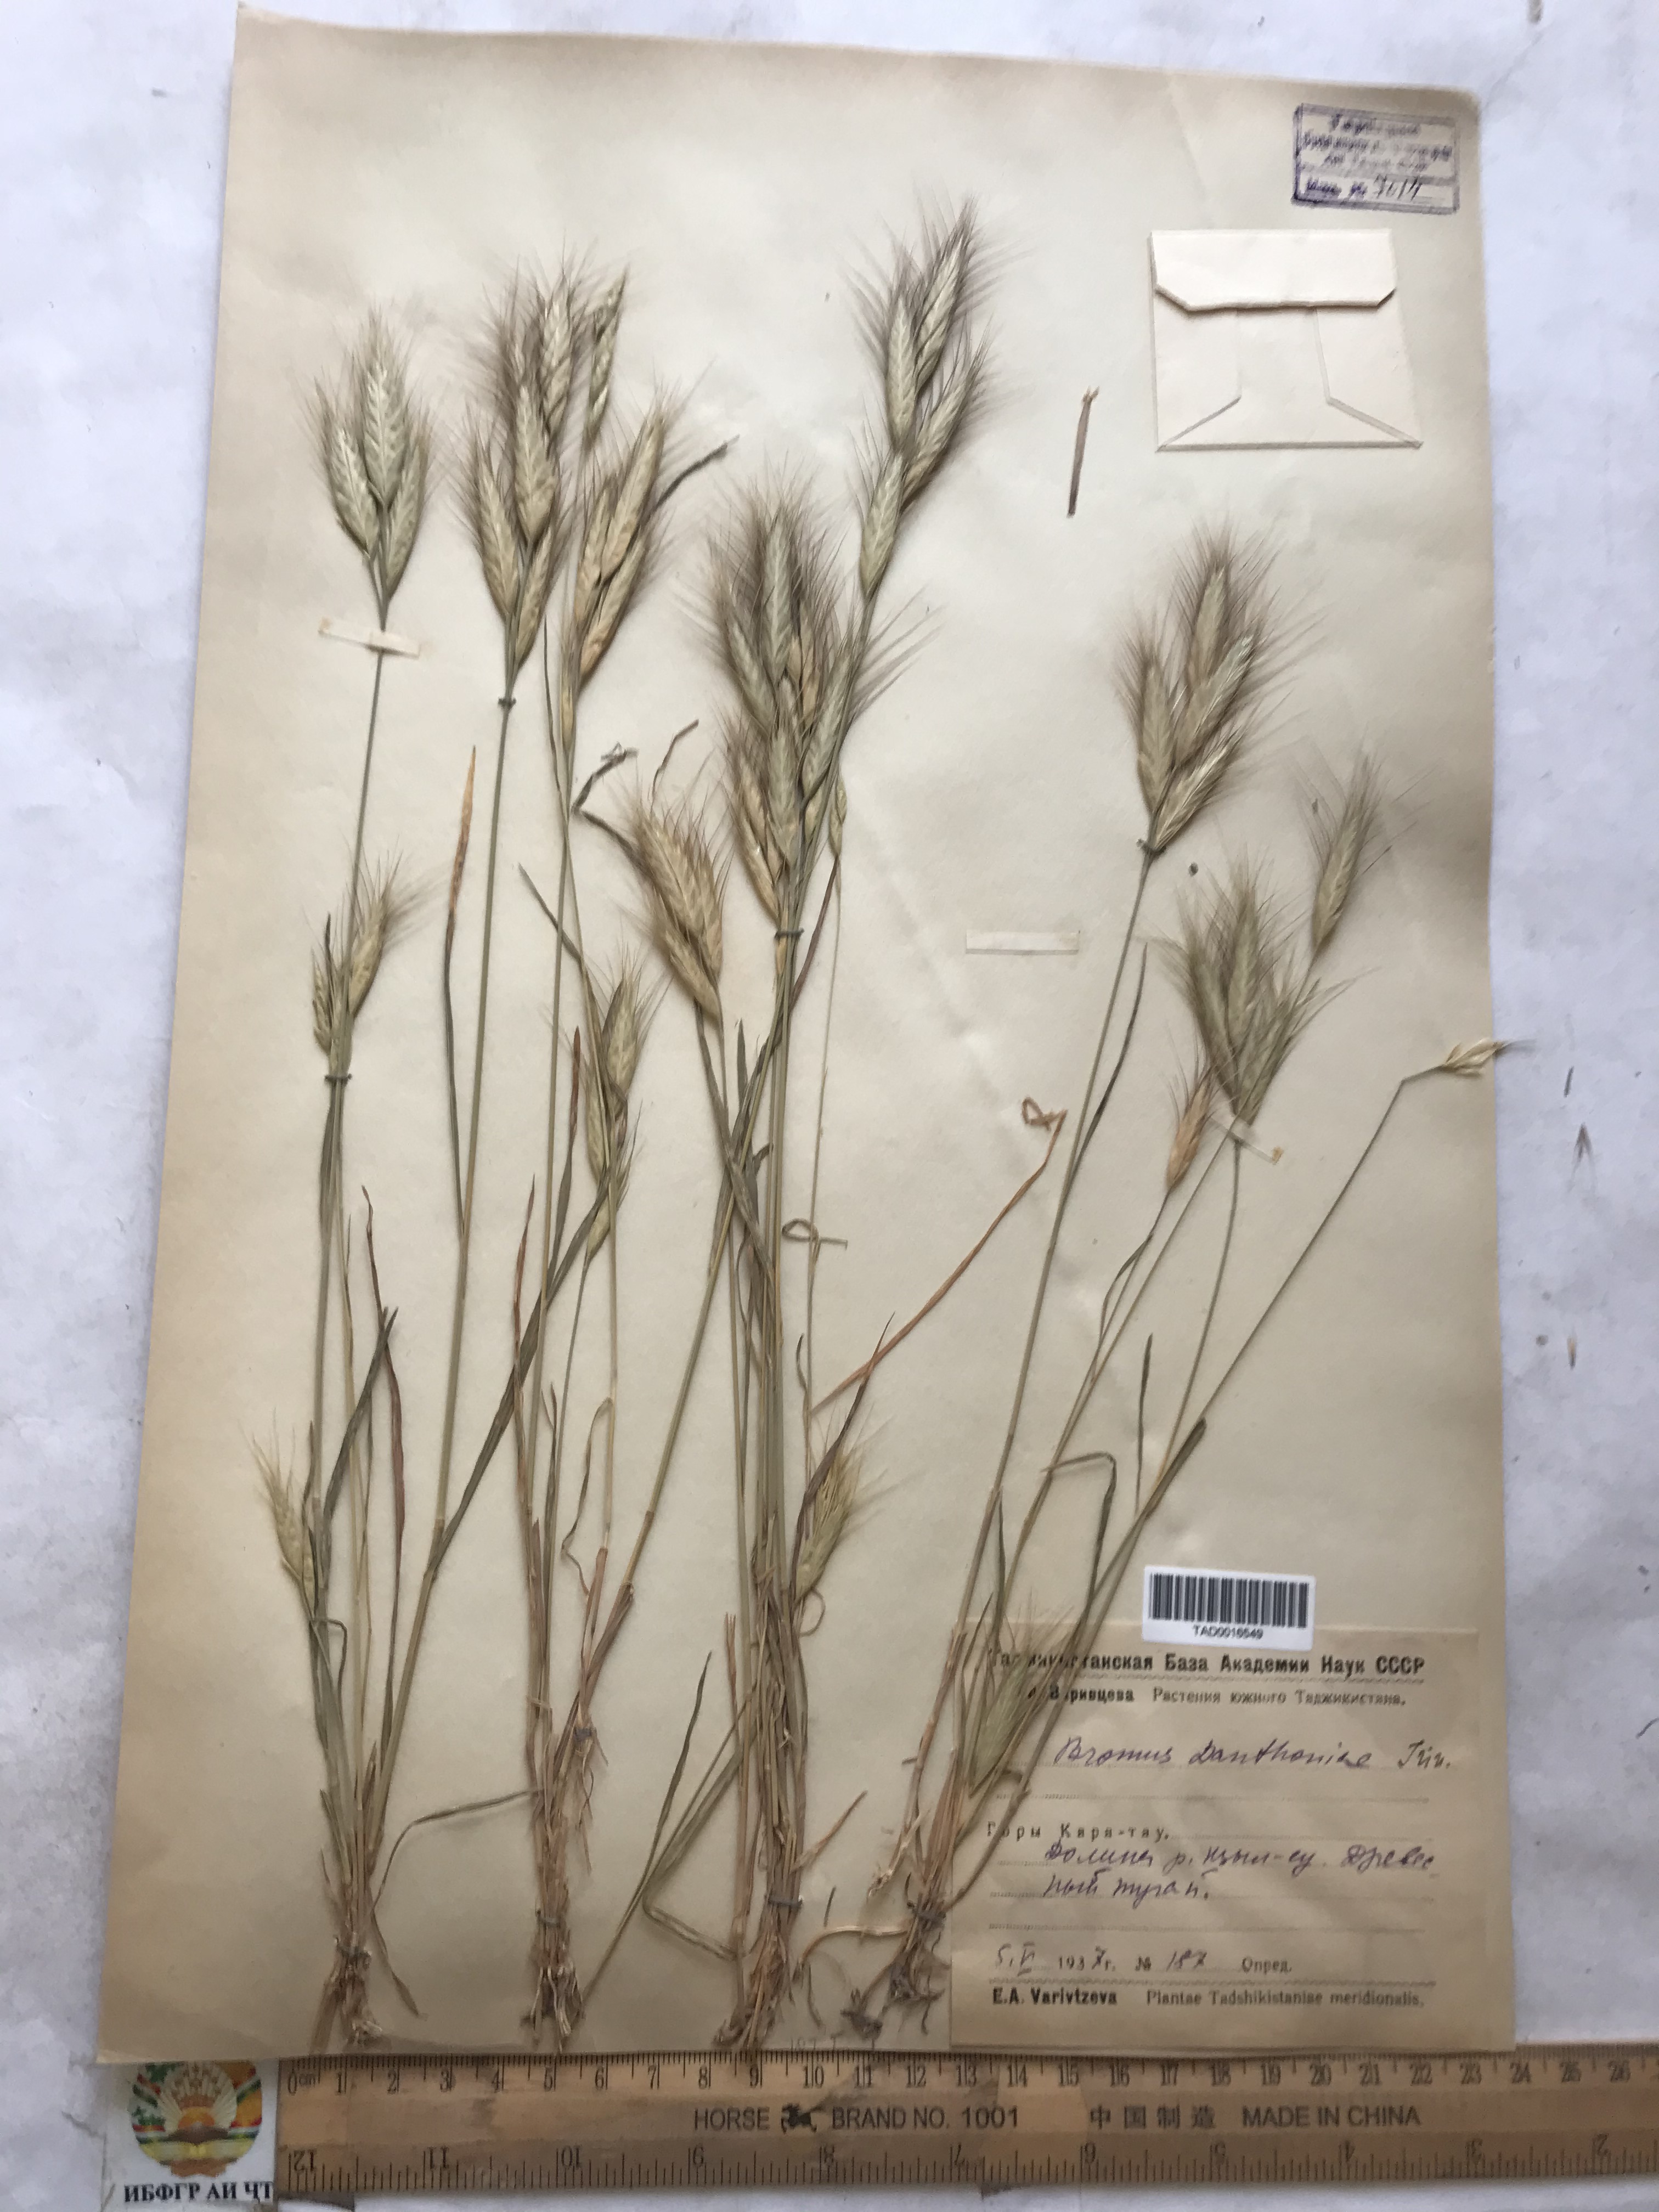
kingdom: Plantae
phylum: Tracheophyta
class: Liliopsida
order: Poales
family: Poaceae
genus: Bromus
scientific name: Bromus danthoniae
